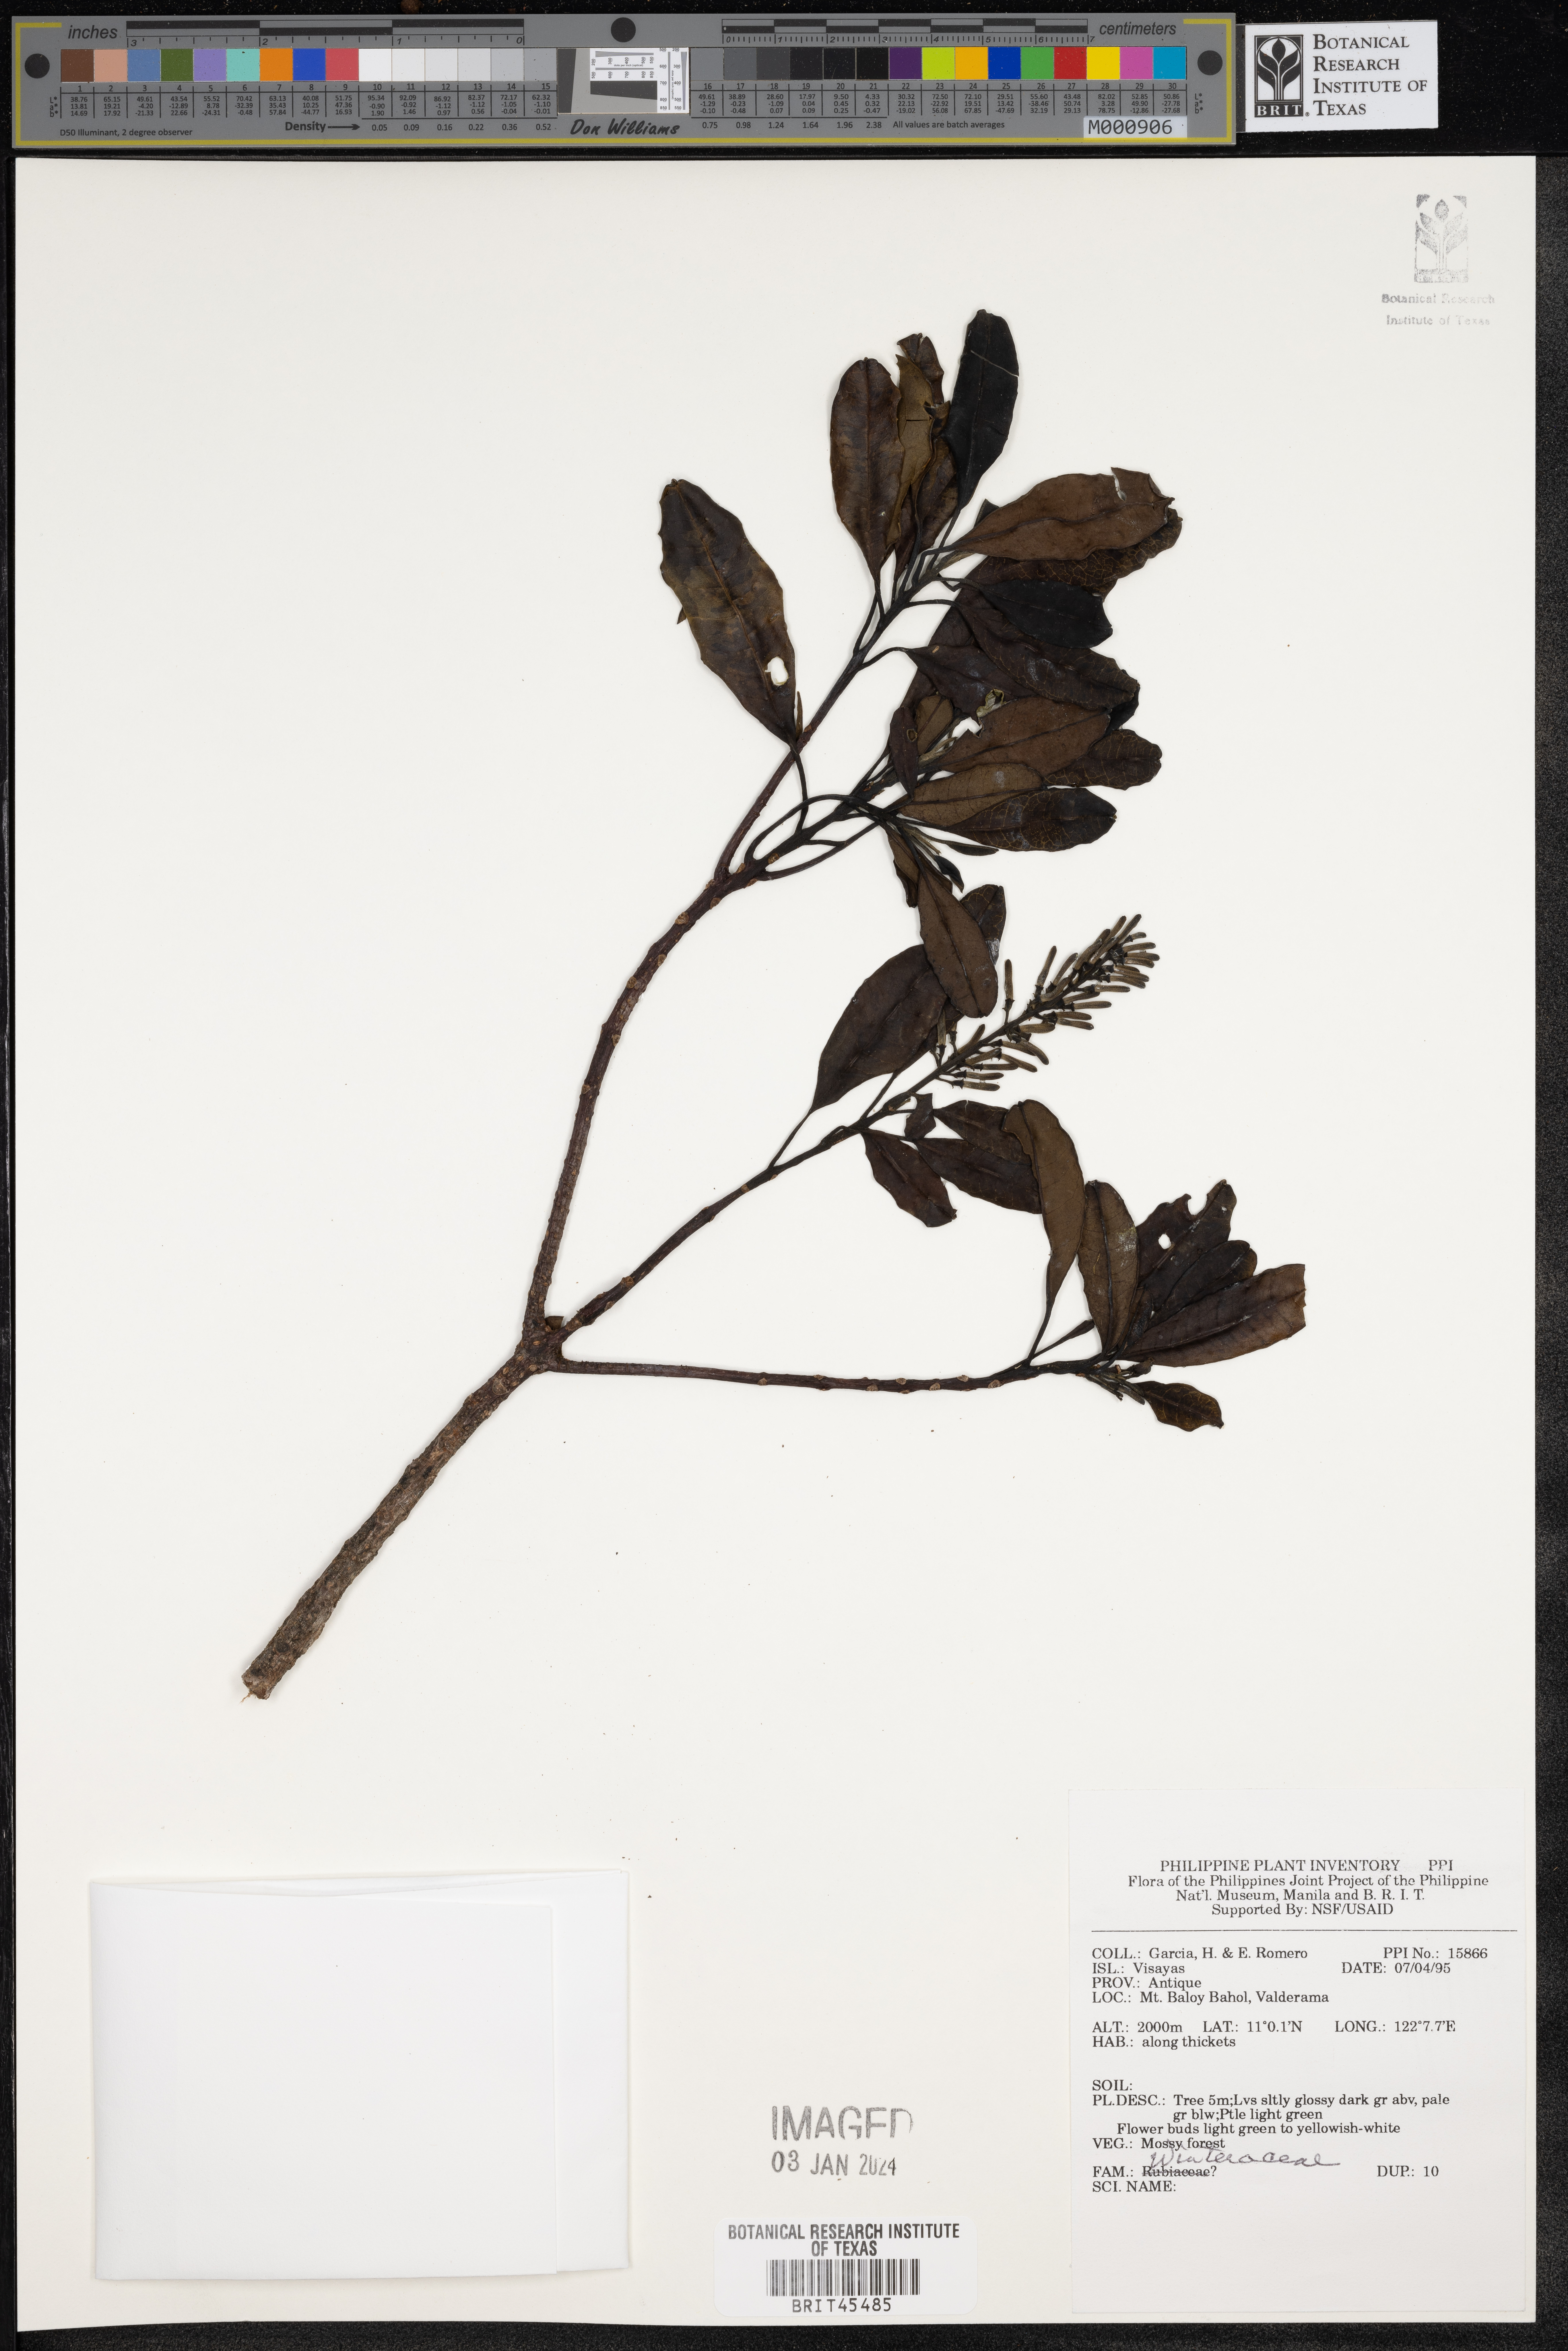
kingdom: Plantae
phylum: Tracheophyta
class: Magnoliopsida
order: Canellales
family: Winteraceae
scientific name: Winteraceae
